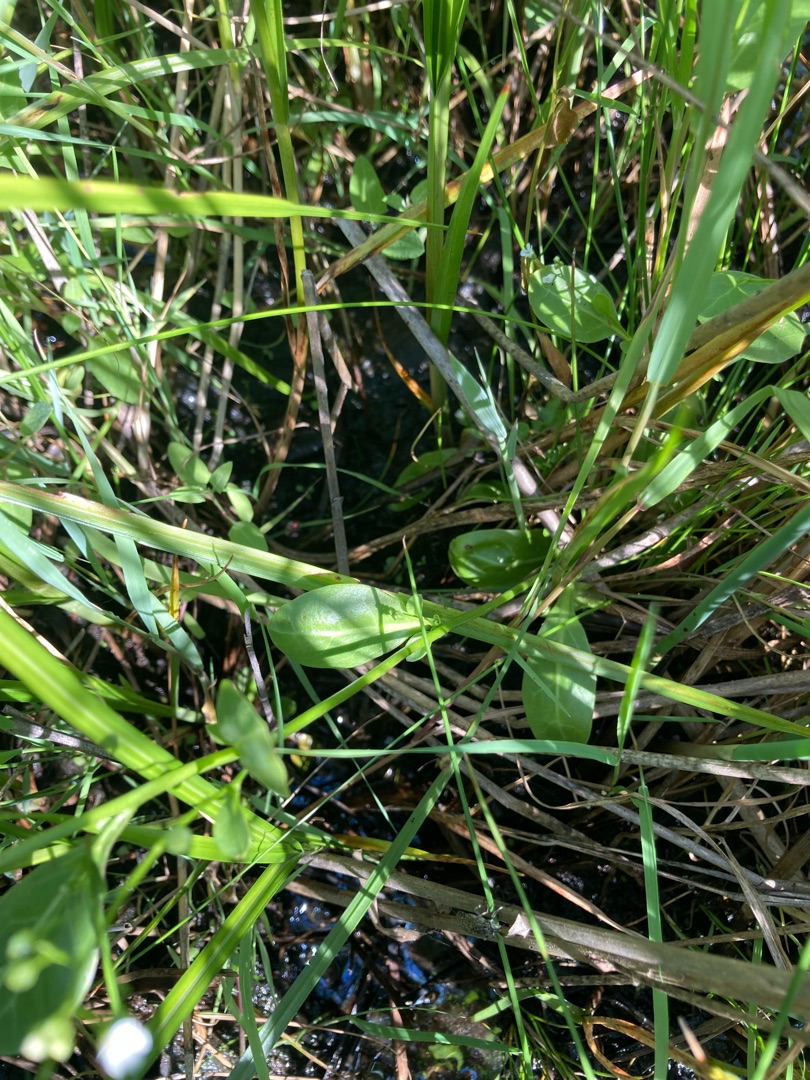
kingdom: Plantae
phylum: Tracheophyta
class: Magnoliopsida
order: Ericales
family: Primulaceae
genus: Samolus
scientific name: Samolus valerandi
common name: Samel
